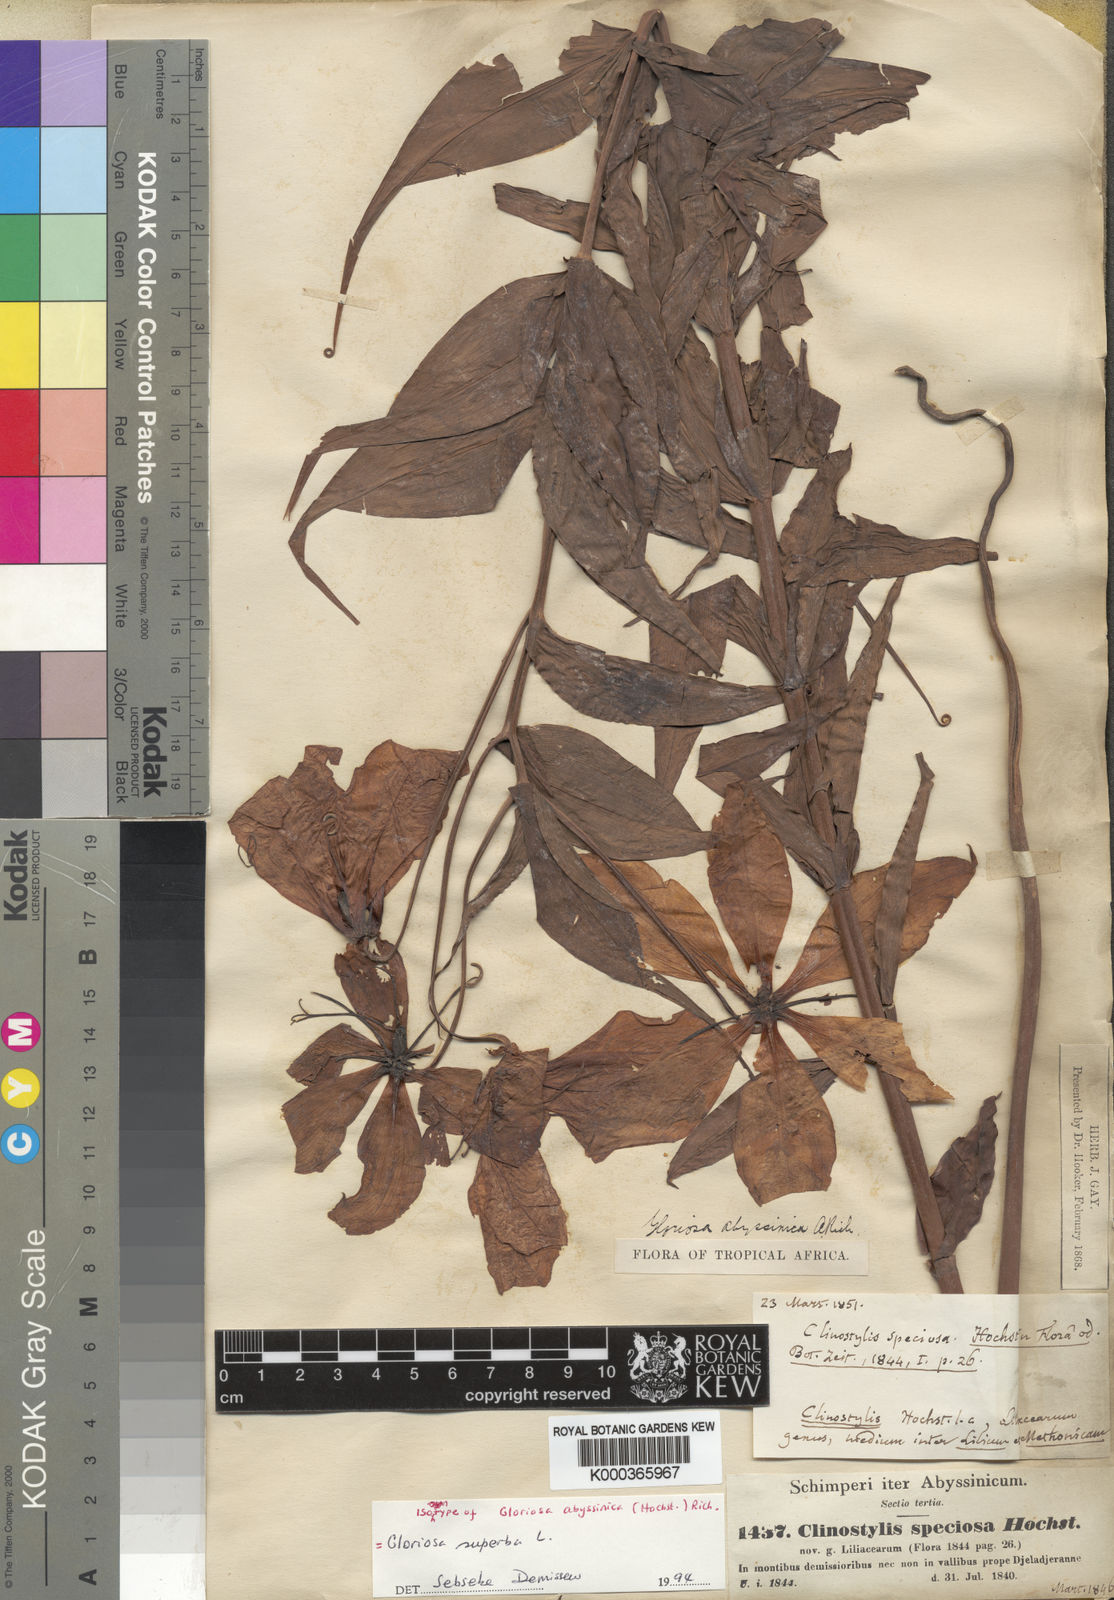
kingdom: Plantae
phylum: Tracheophyta
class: Liliopsida
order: Liliales
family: Colchicaceae
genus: Gloriosa
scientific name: Gloriosa superba
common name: Flame lily
